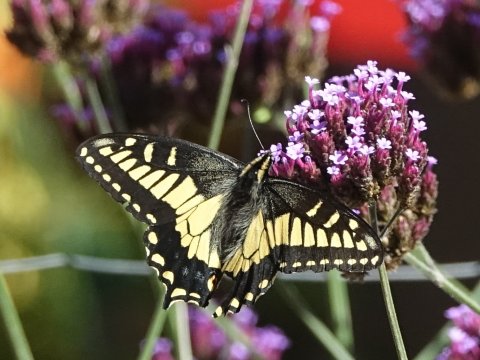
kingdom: Animalia
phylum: Arthropoda
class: Insecta
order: Lepidoptera
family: Papilionidae
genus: Papilio
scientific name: Papilio zelicaon
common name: Anise Swallowtail
